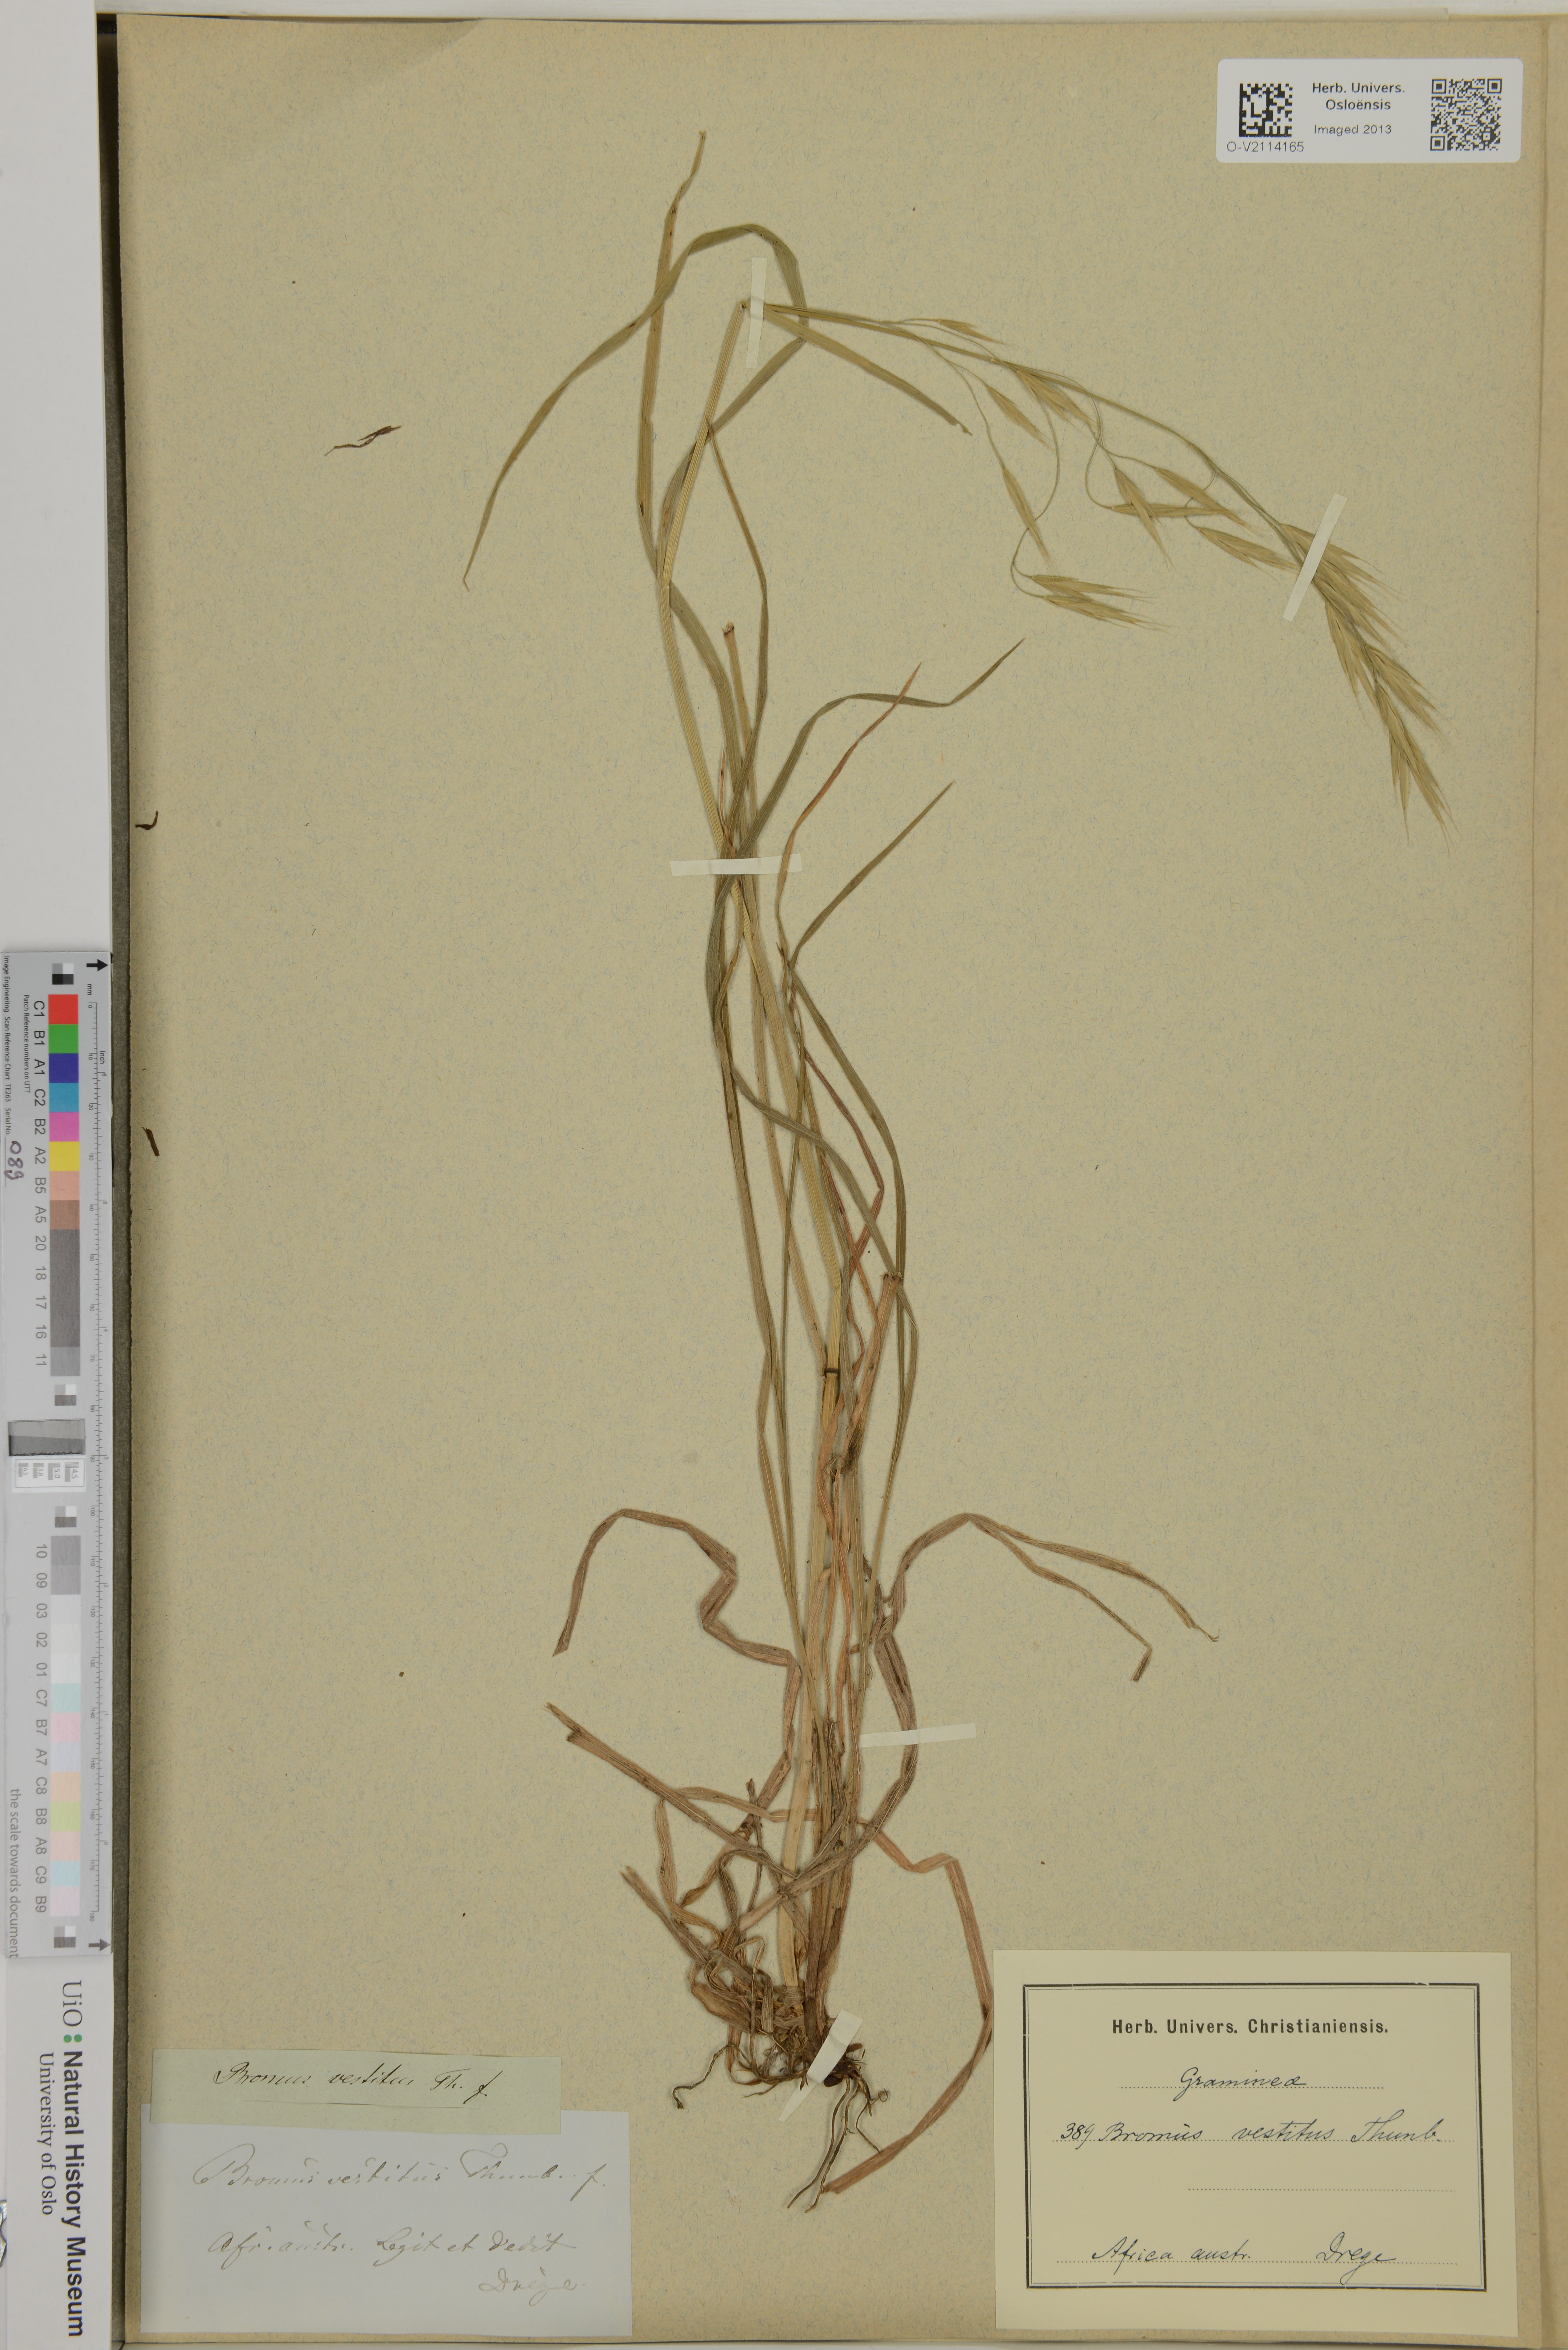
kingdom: Plantae
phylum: Tracheophyta
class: Liliopsida
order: Poales
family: Poaceae
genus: Bromus
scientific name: Bromus pectinatus
